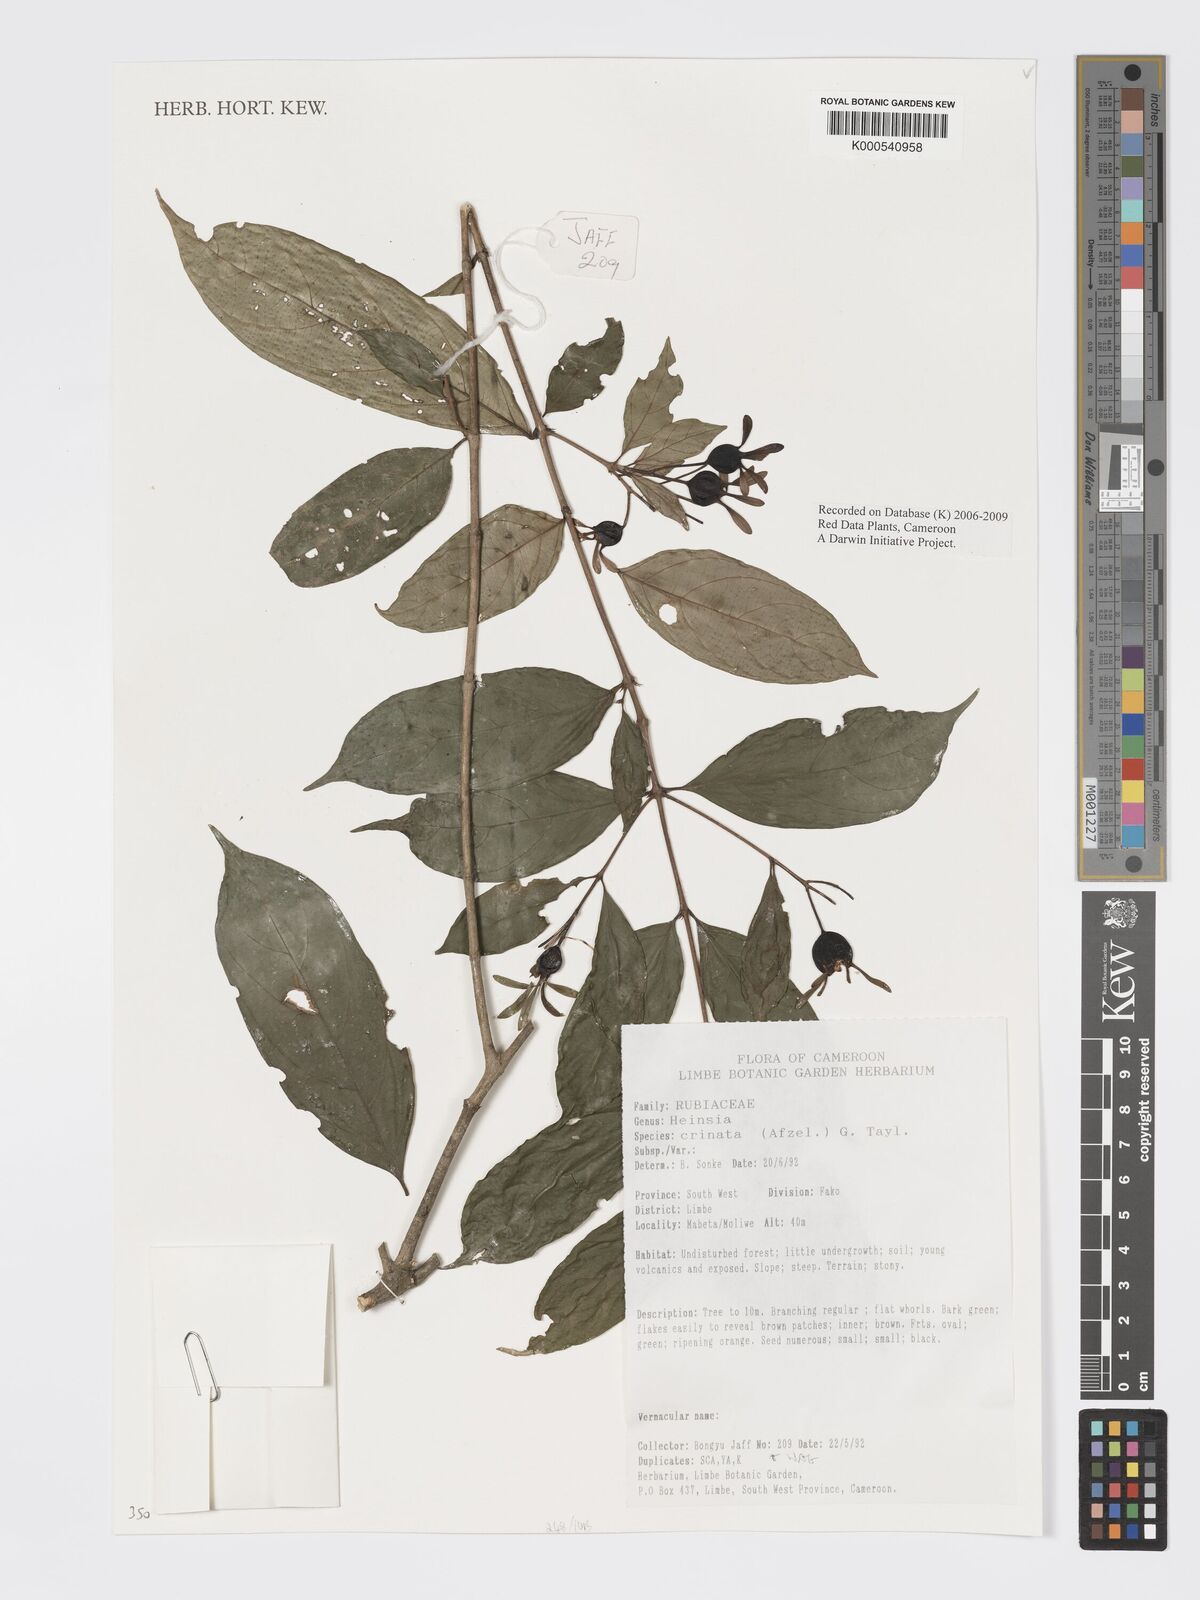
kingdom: Plantae
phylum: Tracheophyta
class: Magnoliopsida
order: Gentianales
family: Rubiaceae
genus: Heinsia
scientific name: Heinsia crinita
